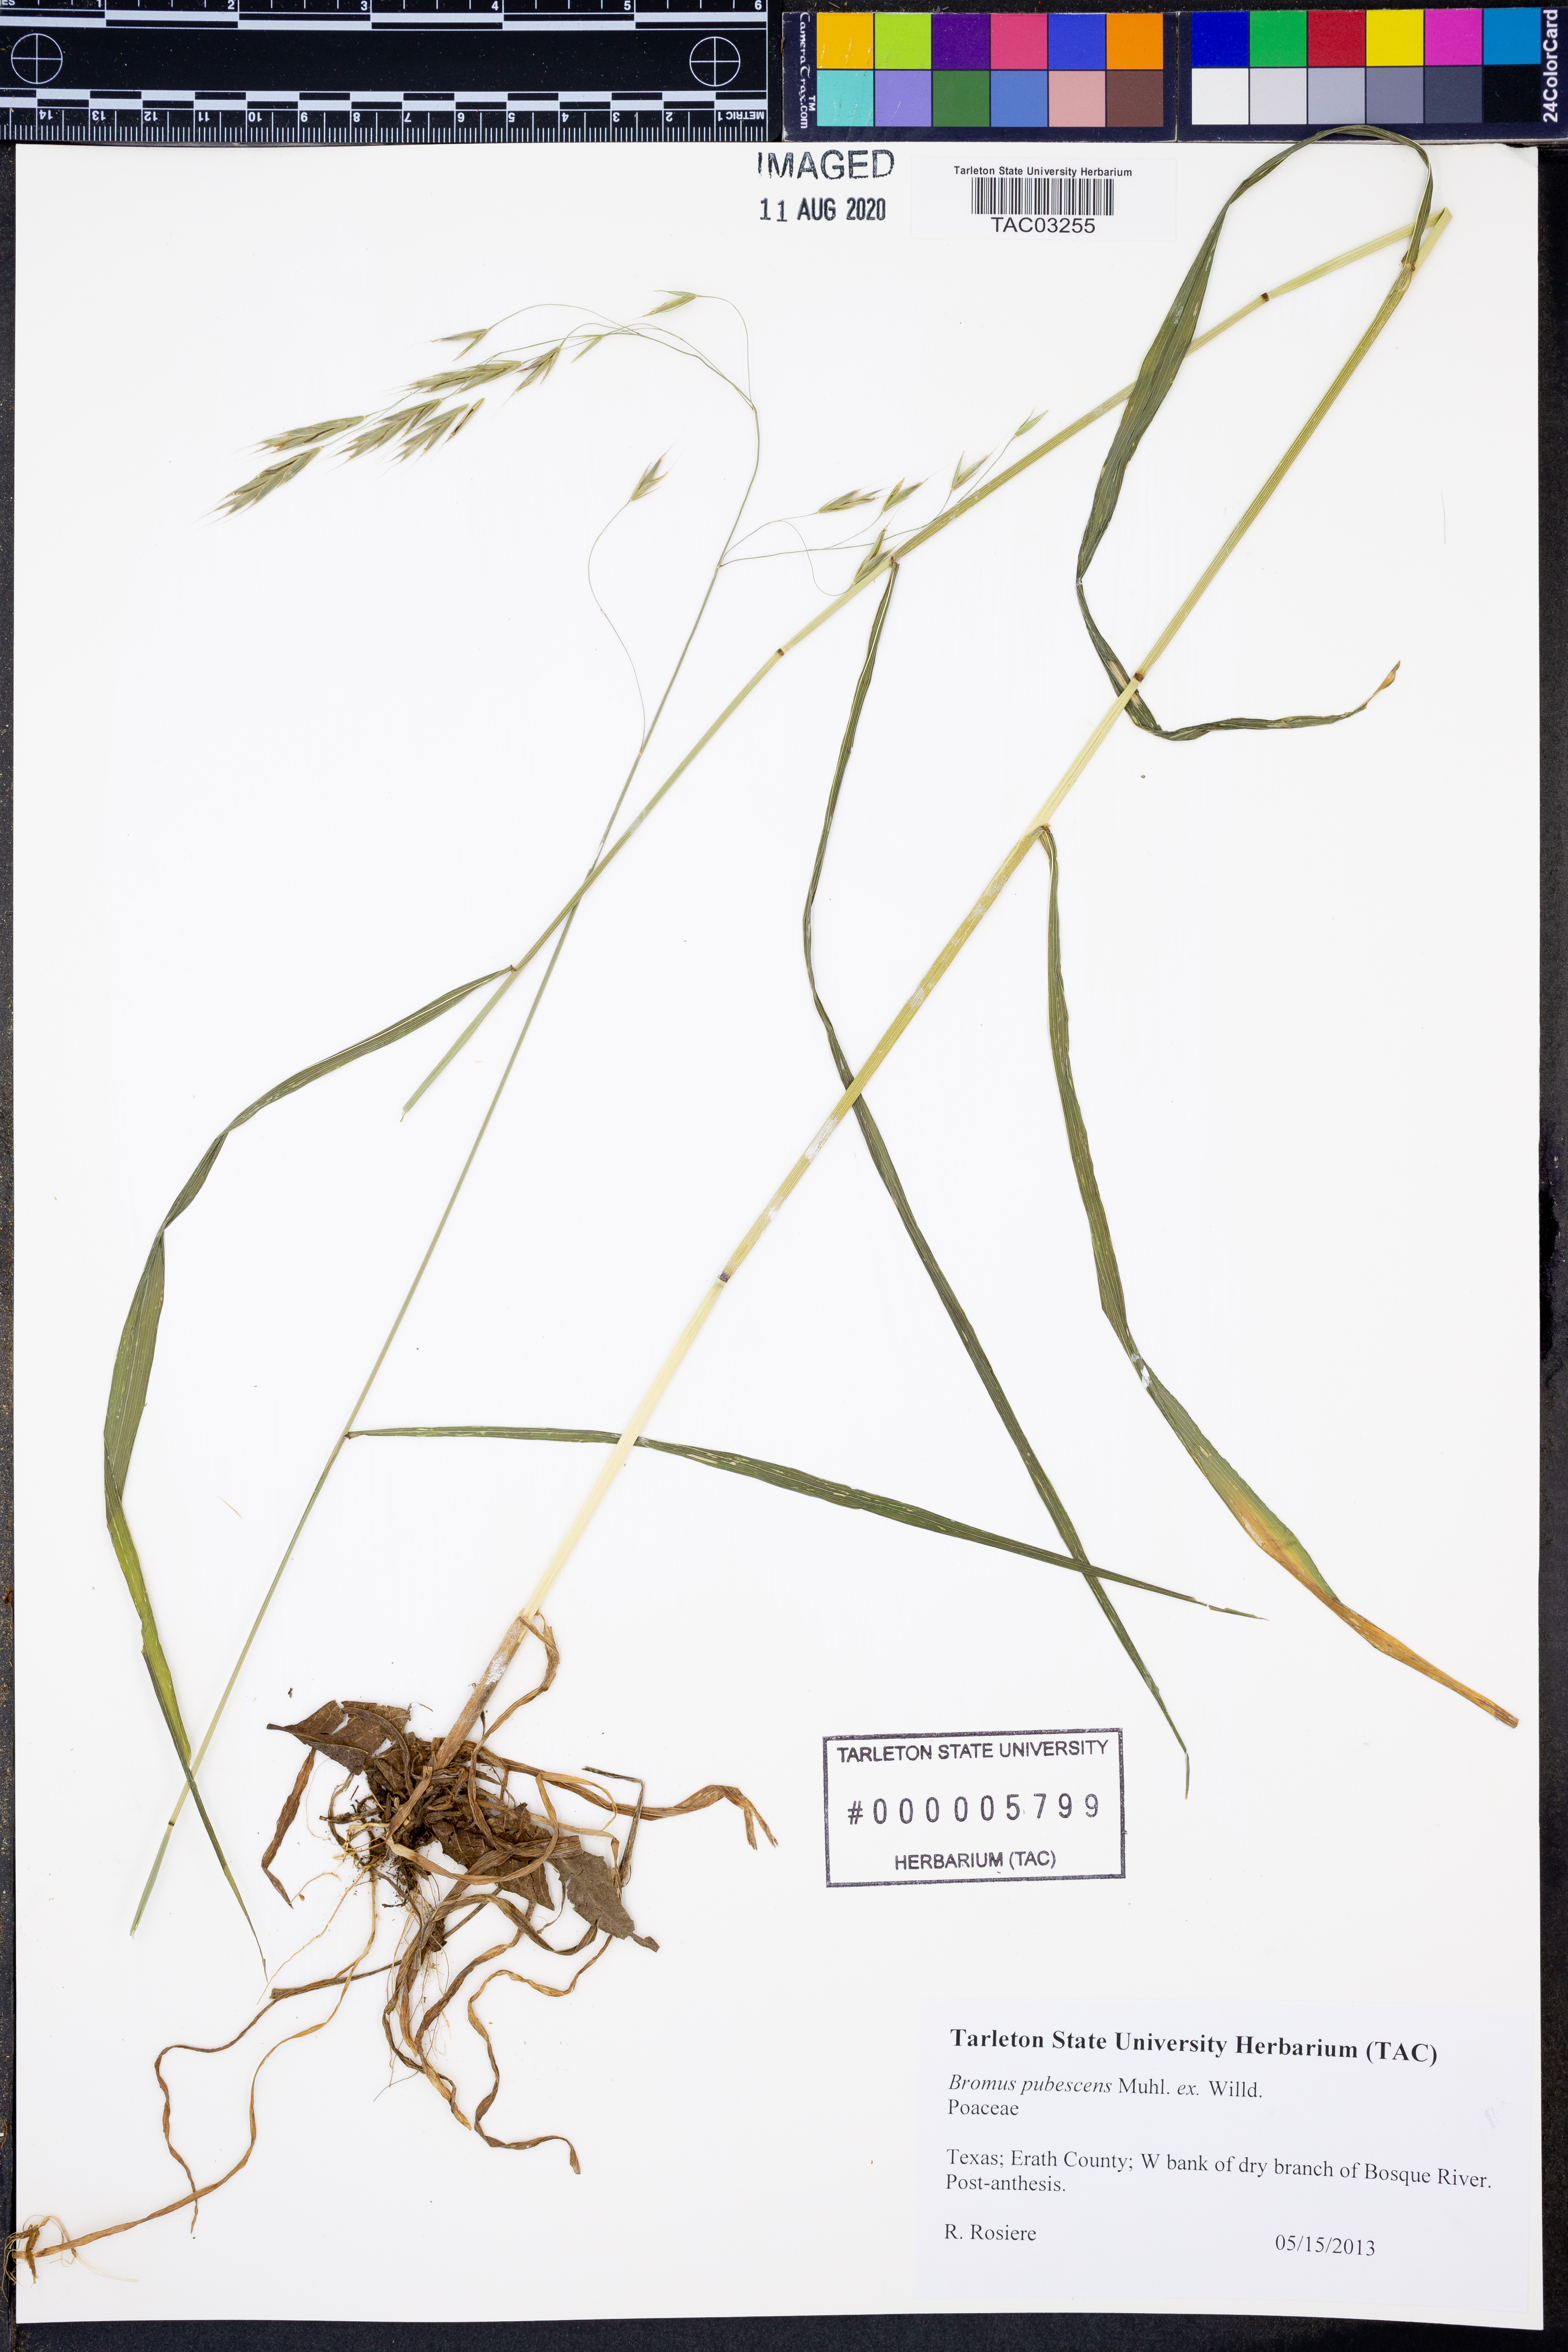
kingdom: Plantae
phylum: Tracheophyta
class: Liliopsida
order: Poales
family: Poaceae
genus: Bromus
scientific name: Bromus pubescens
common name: Hairy wood brome grass
